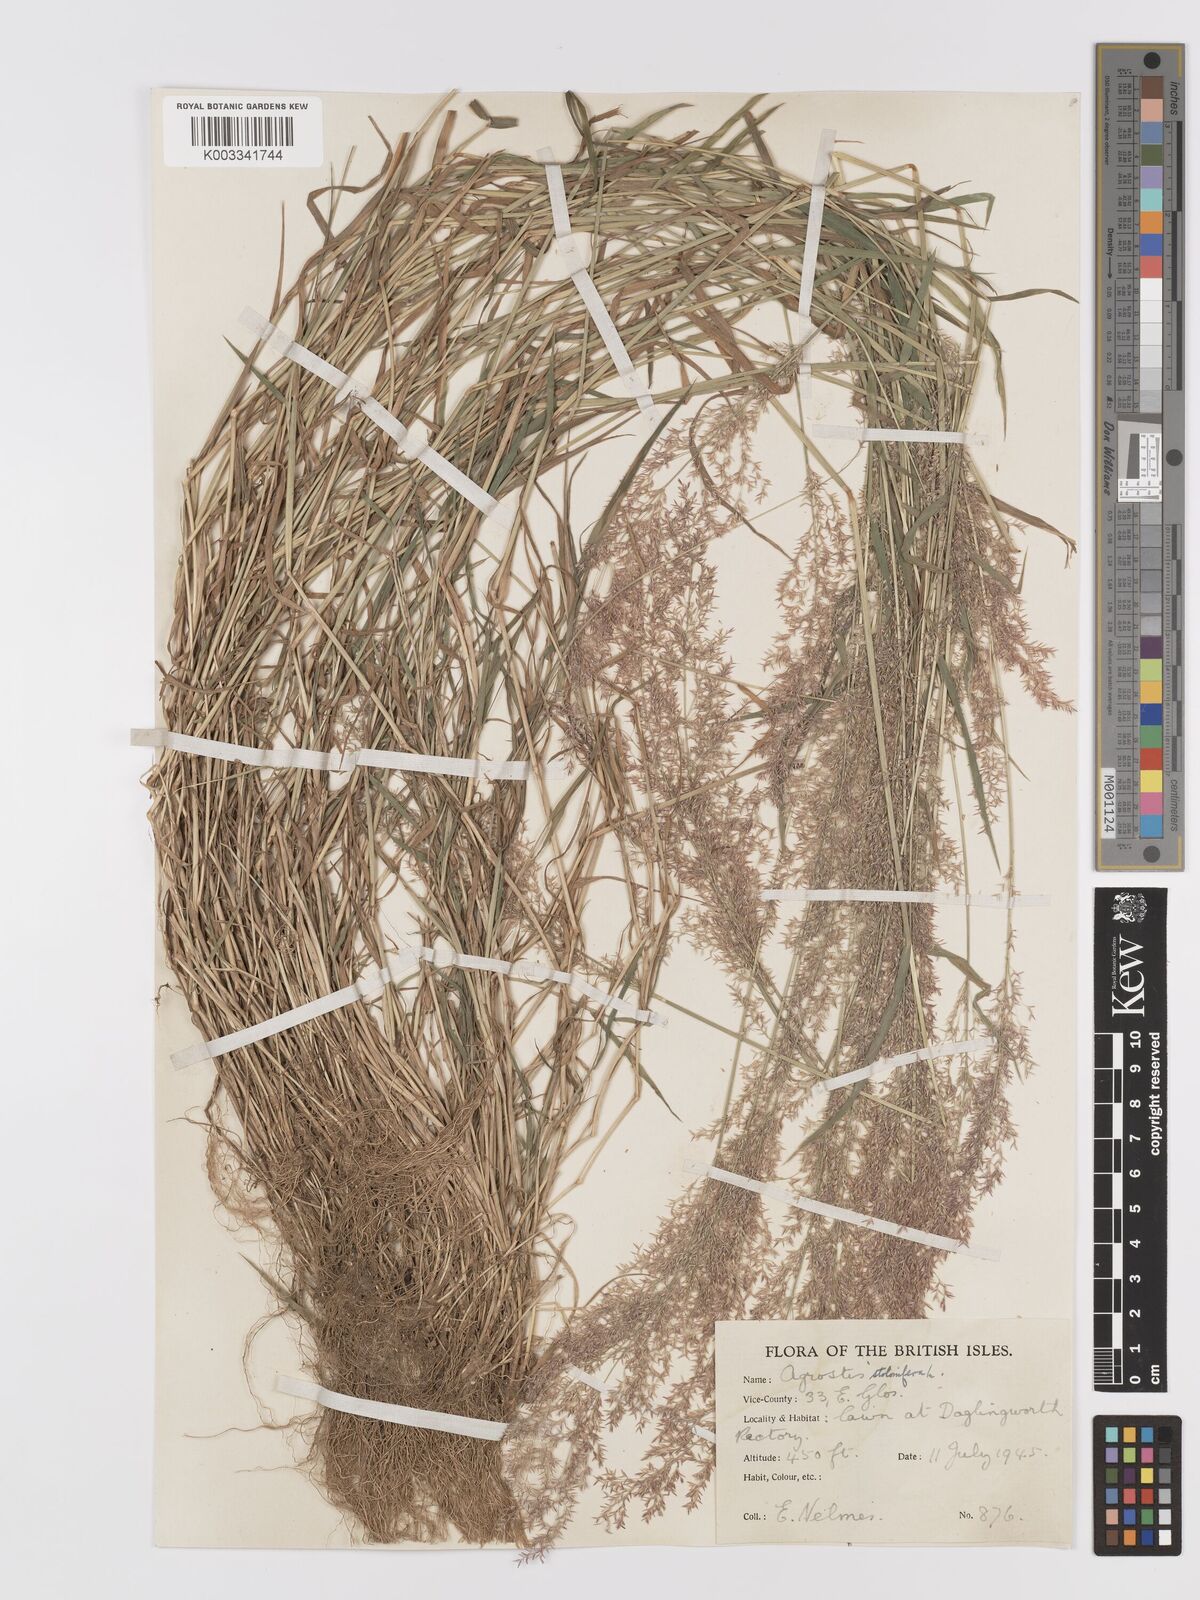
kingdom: Plantae
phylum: Tracheophyta
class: Liliopsida
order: Poales
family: Poaceae
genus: Agrostis
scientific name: Agrostis stolonifera
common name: Creeping bentgrass
